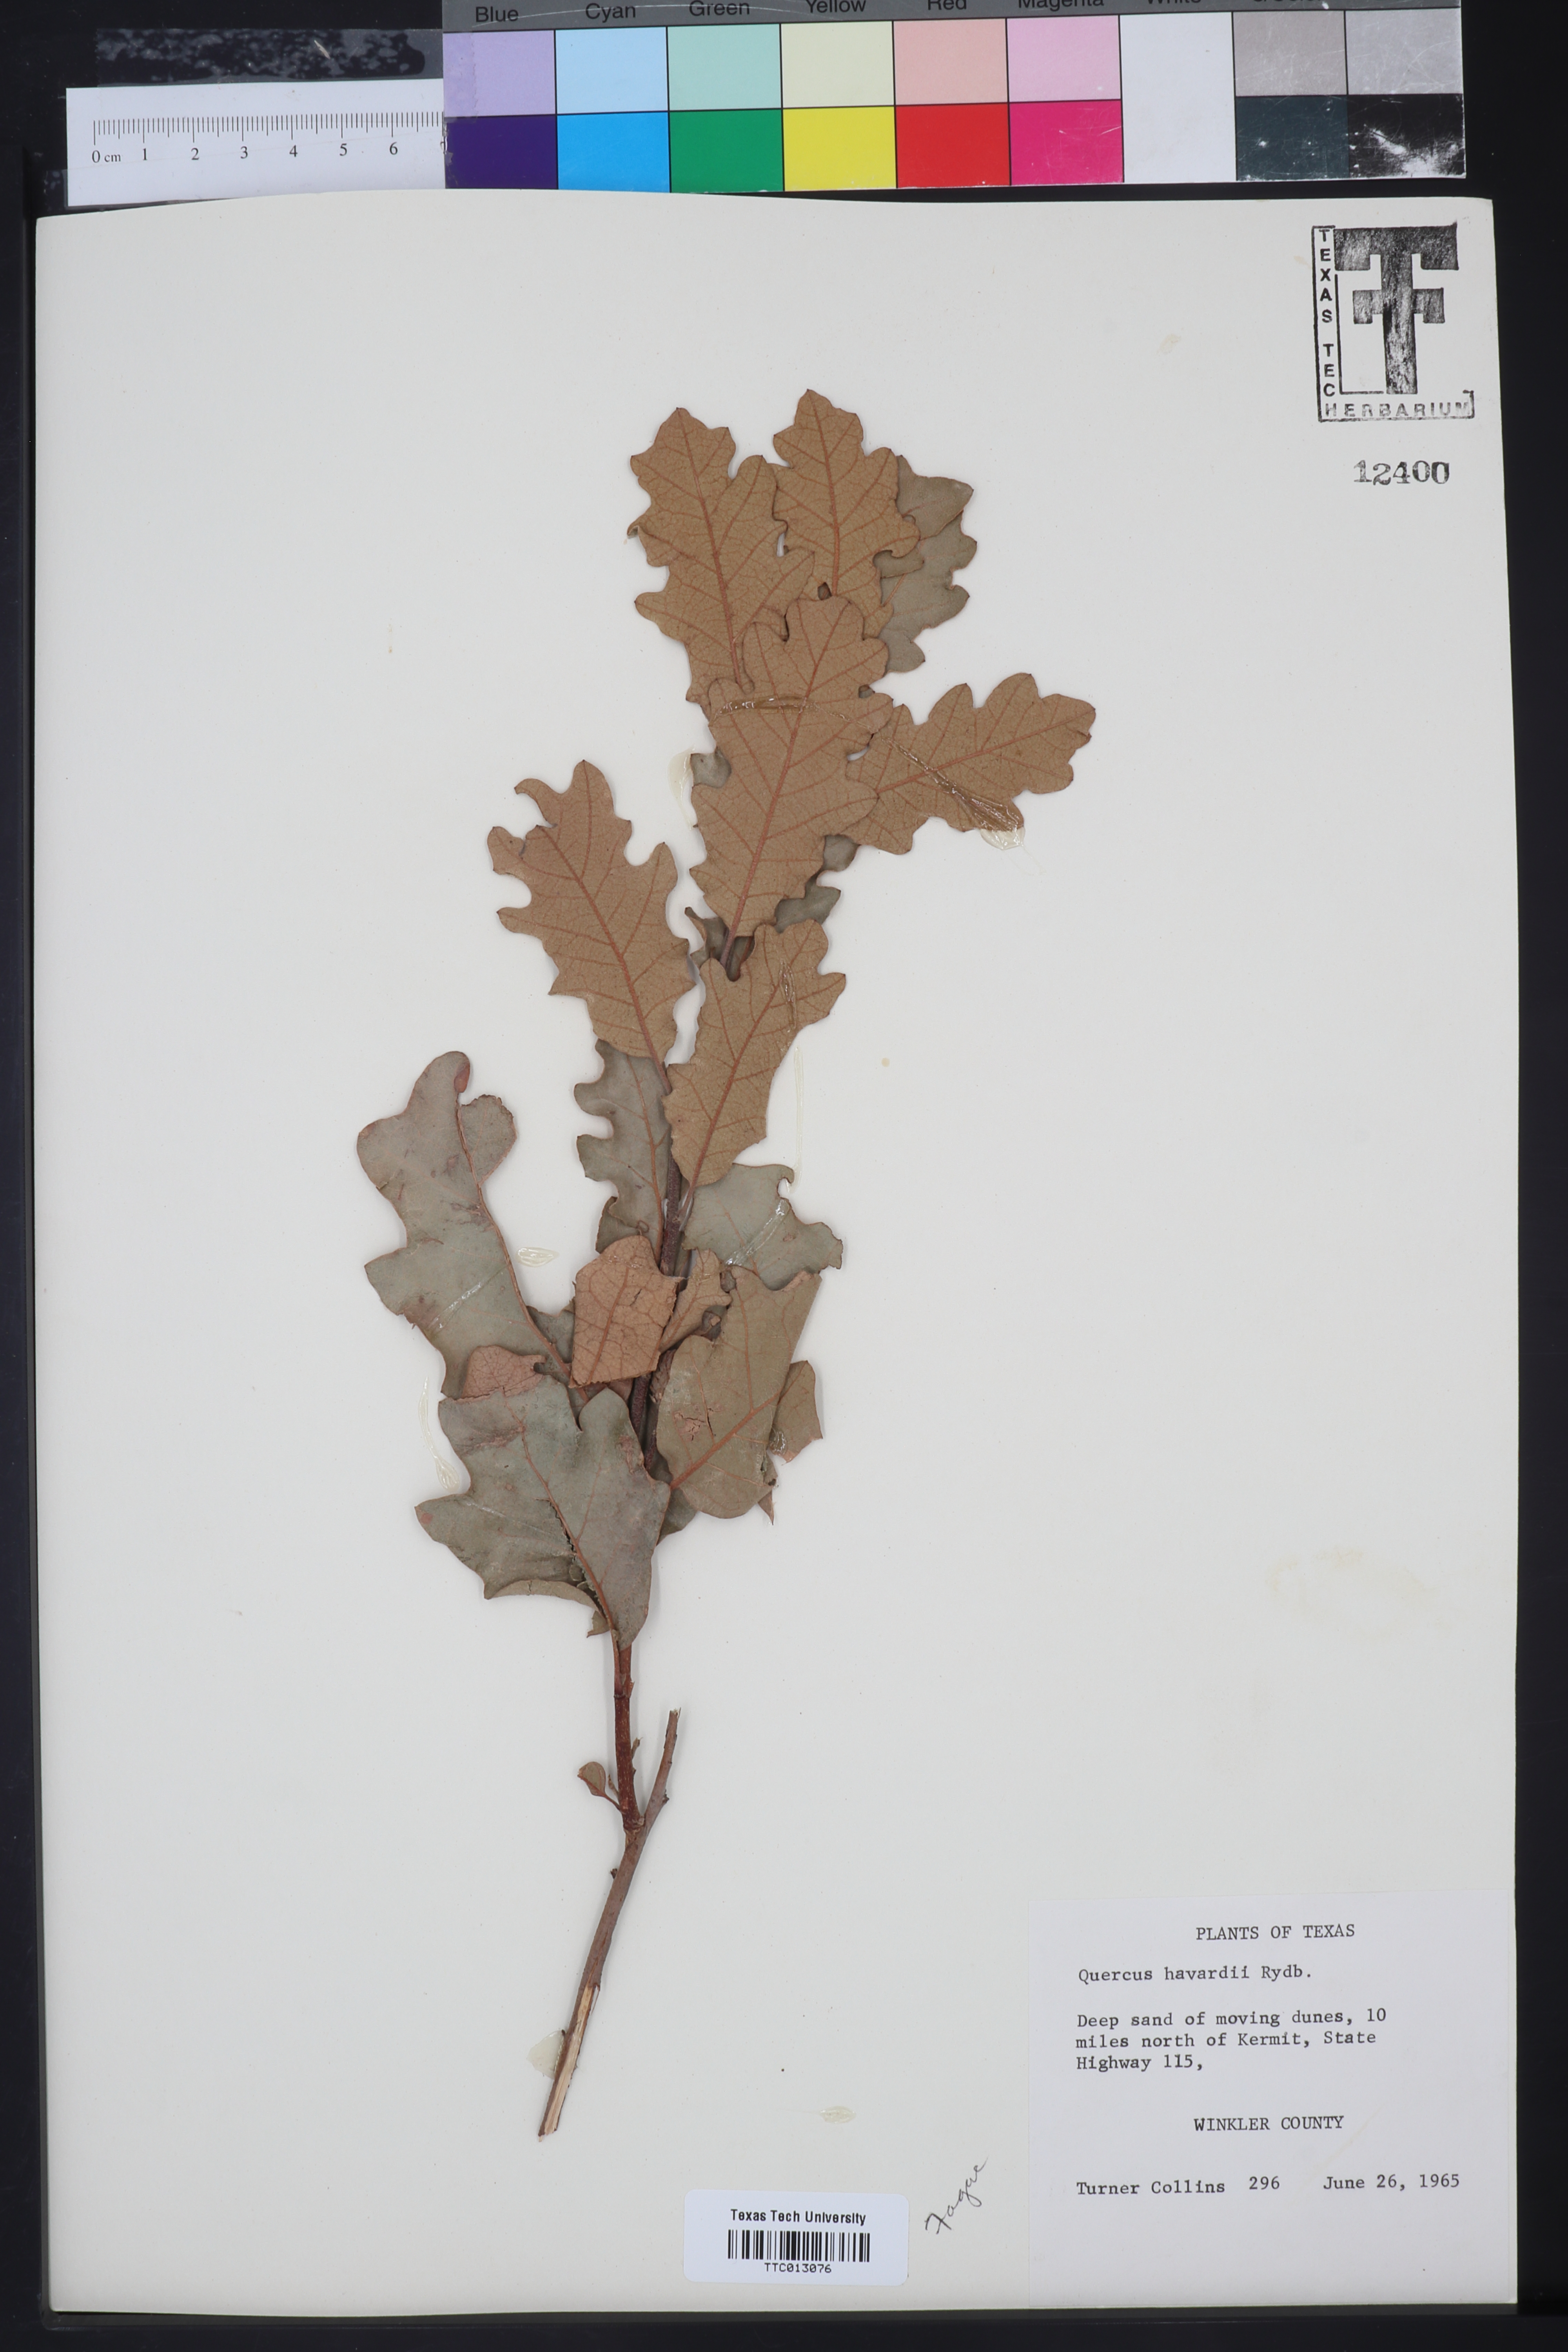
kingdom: Plantae
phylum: Tracheophyta
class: Magnoliopsida
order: Fagales
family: Fagaceae
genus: Quercus
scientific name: Quercus havardii
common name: Shinnery oak
